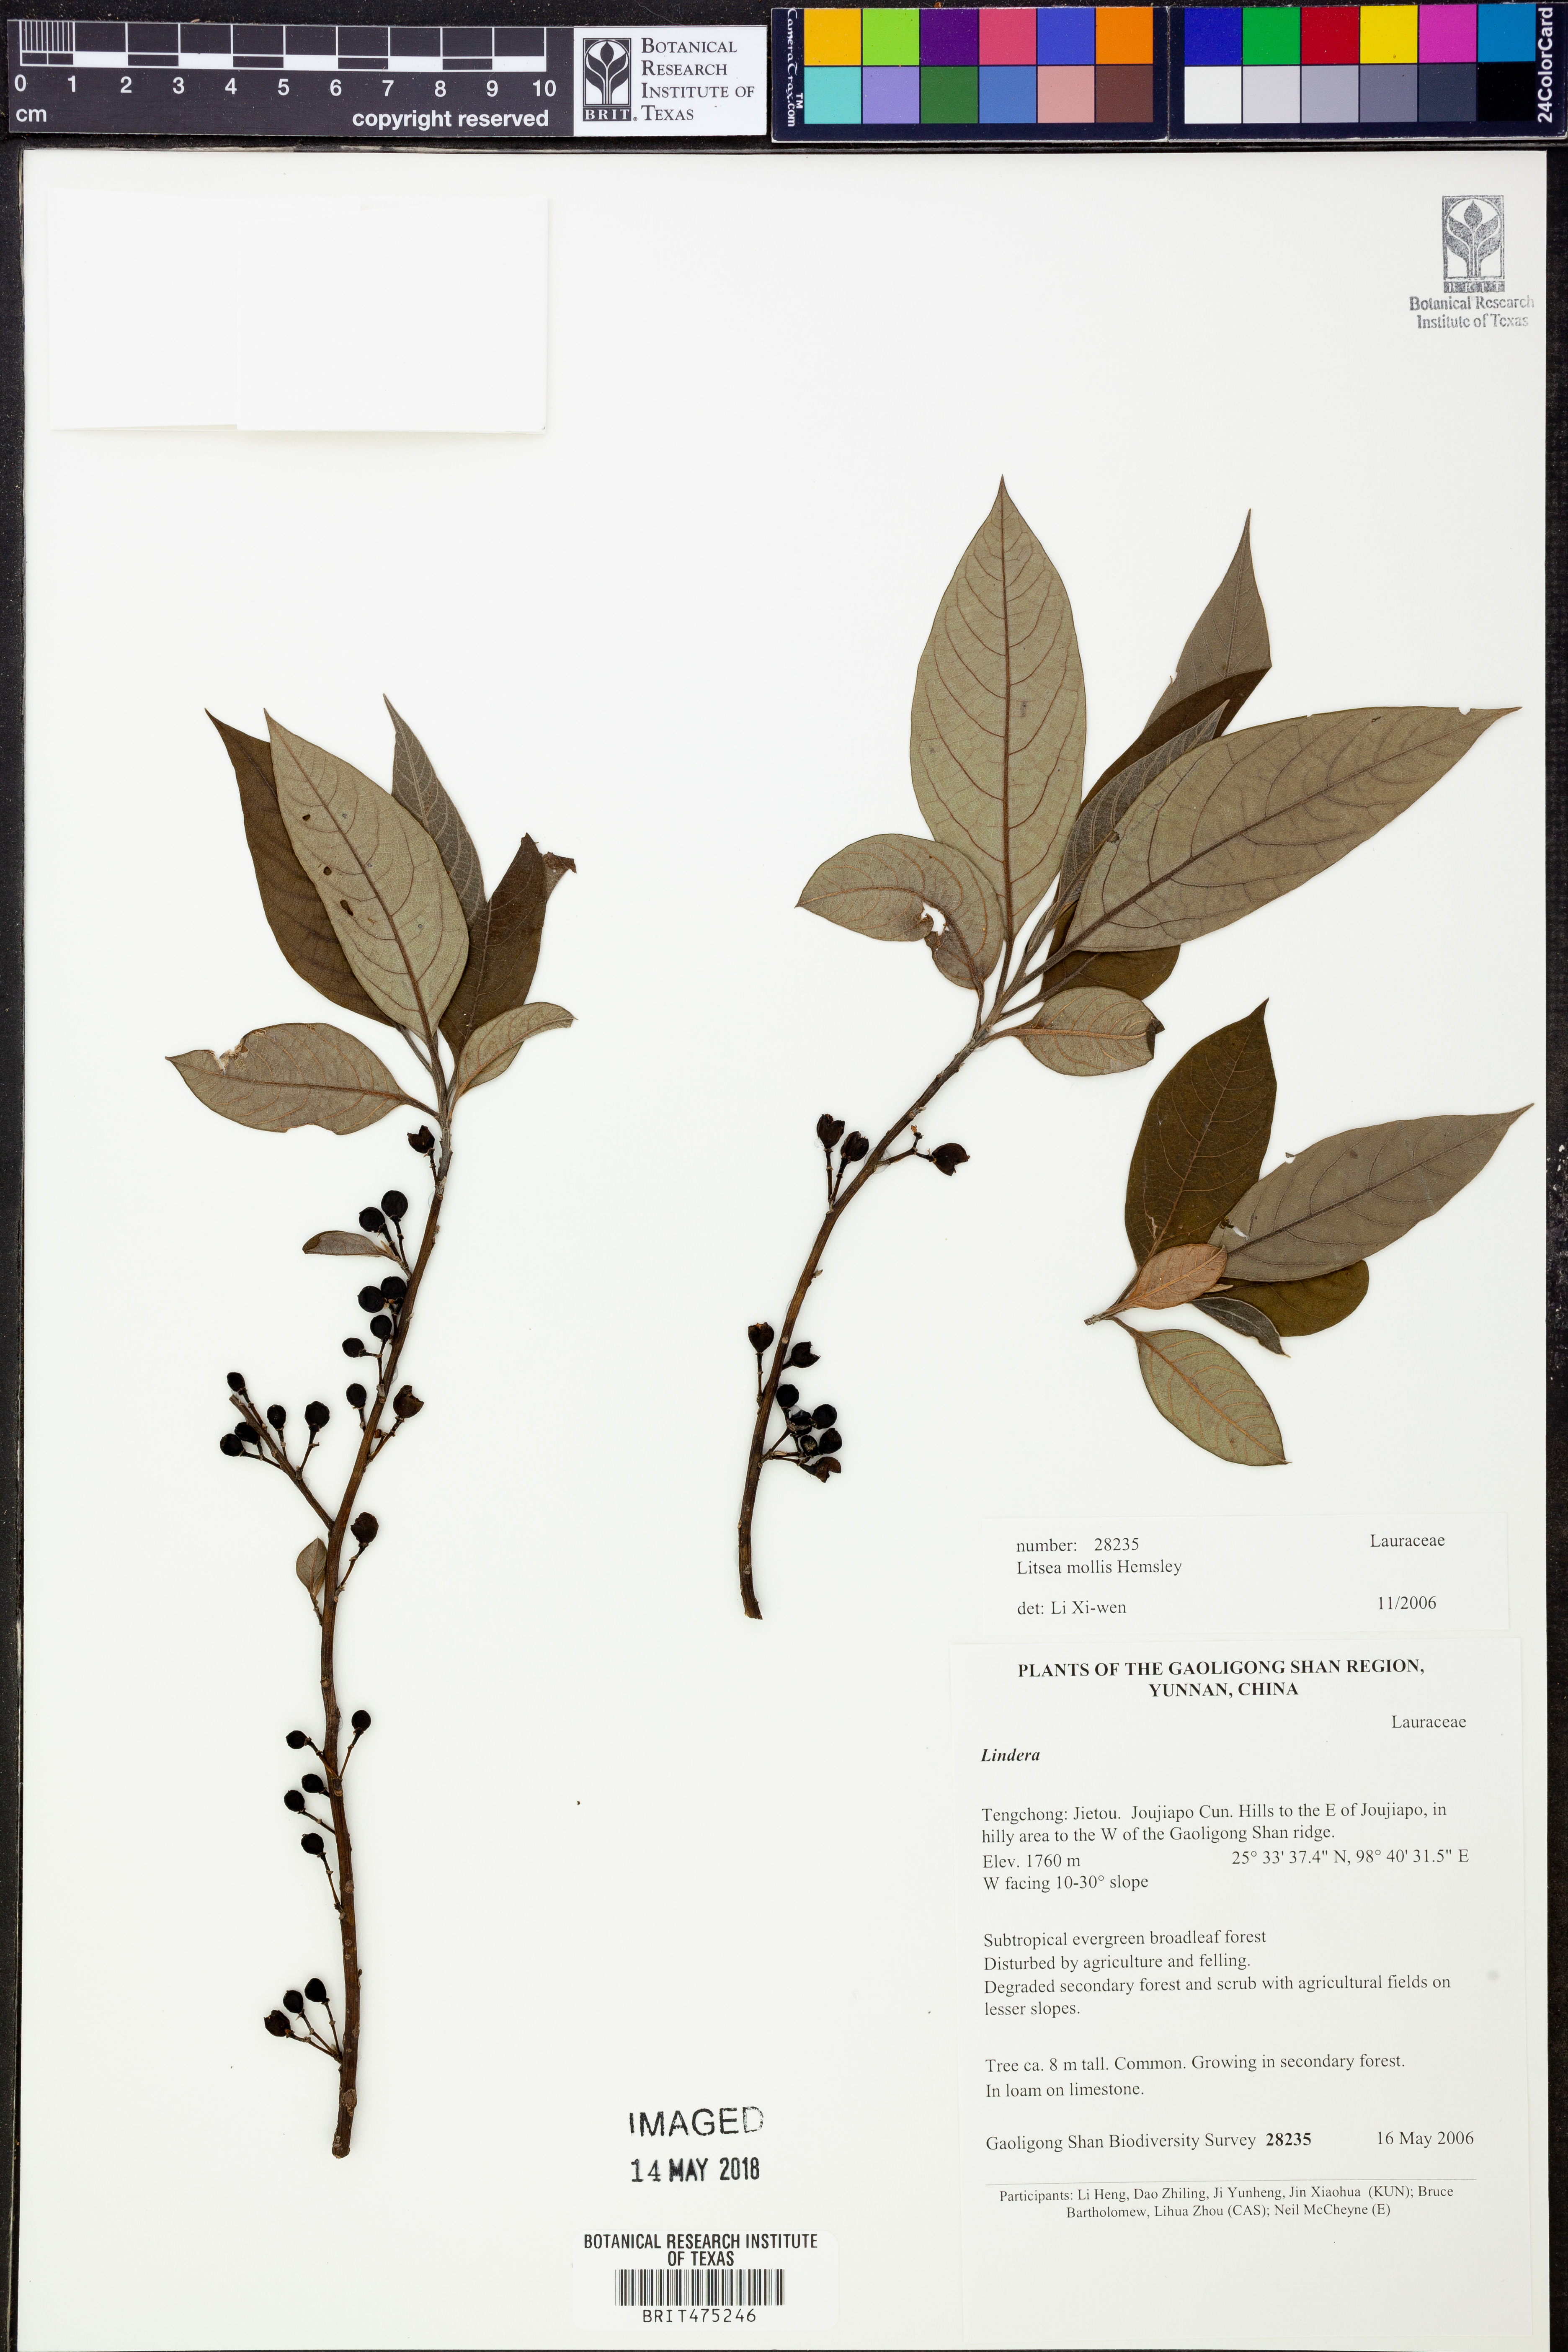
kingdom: Plantae
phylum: Tracheophyta
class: Magnoliopsida
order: Laurales
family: Lauraceae
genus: Litsea
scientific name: Litsea euosma
